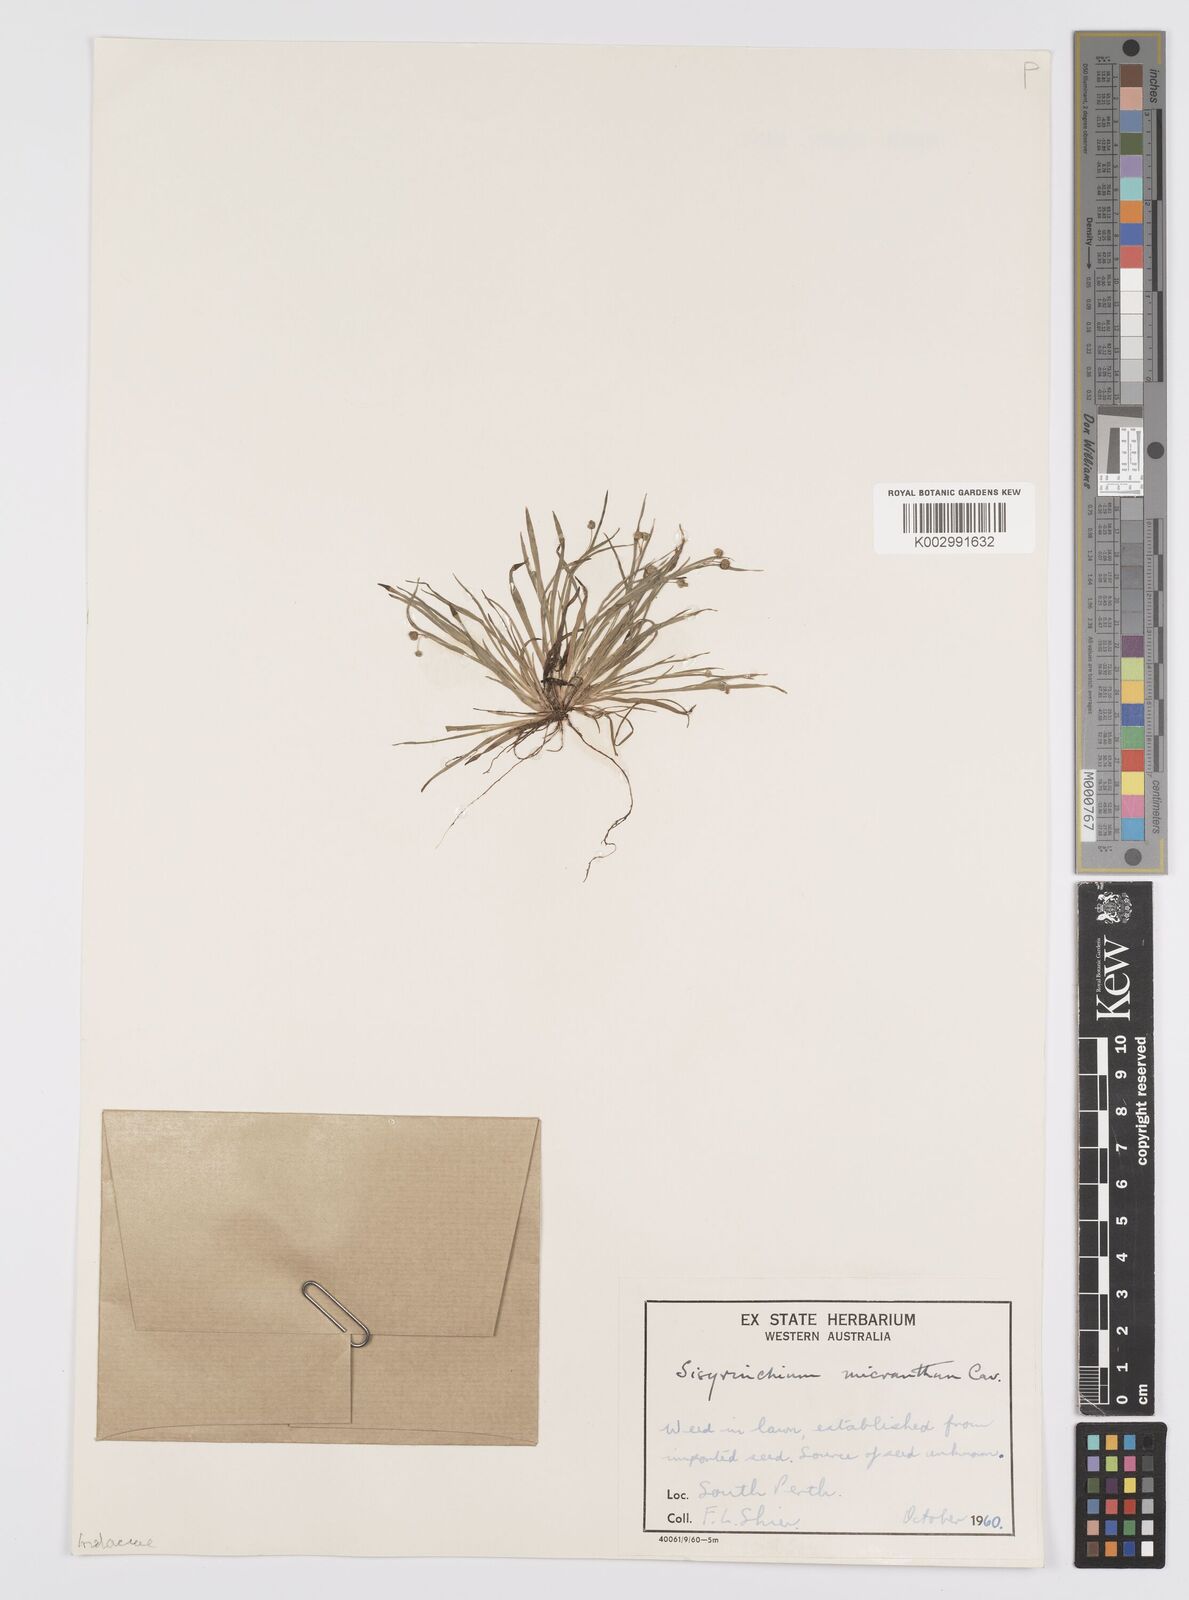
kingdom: Plantae
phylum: Tracheophyta
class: Liliopsida
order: Asparagales
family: Iridaceae
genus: Sisyrinchium
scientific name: Sisyrinchium micranthum
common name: Bermuda pigroot
